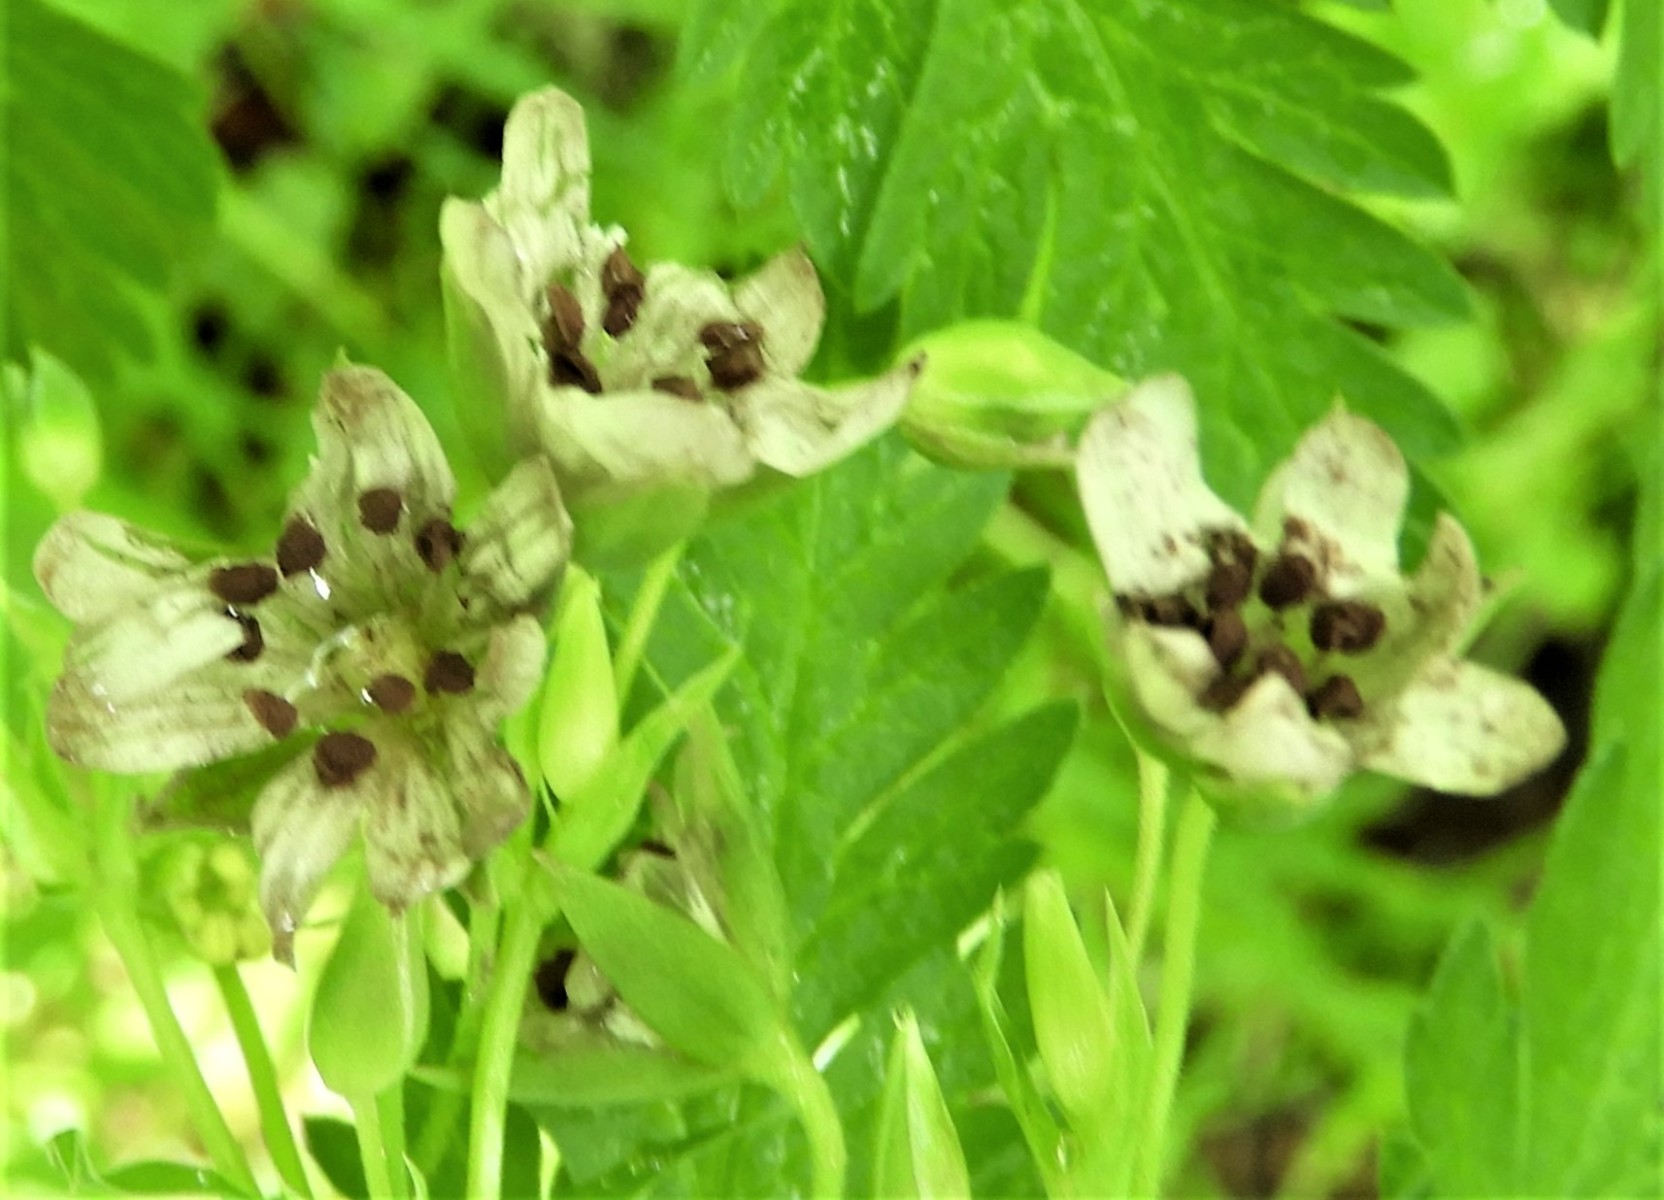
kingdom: Fungi
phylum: Basidiomycota
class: Microbotryomycetes
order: Microbotryales
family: Microbotryaceae
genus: Microbotryum
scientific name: Microbotryum stellariae
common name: fladstjerne-støvbladrust
